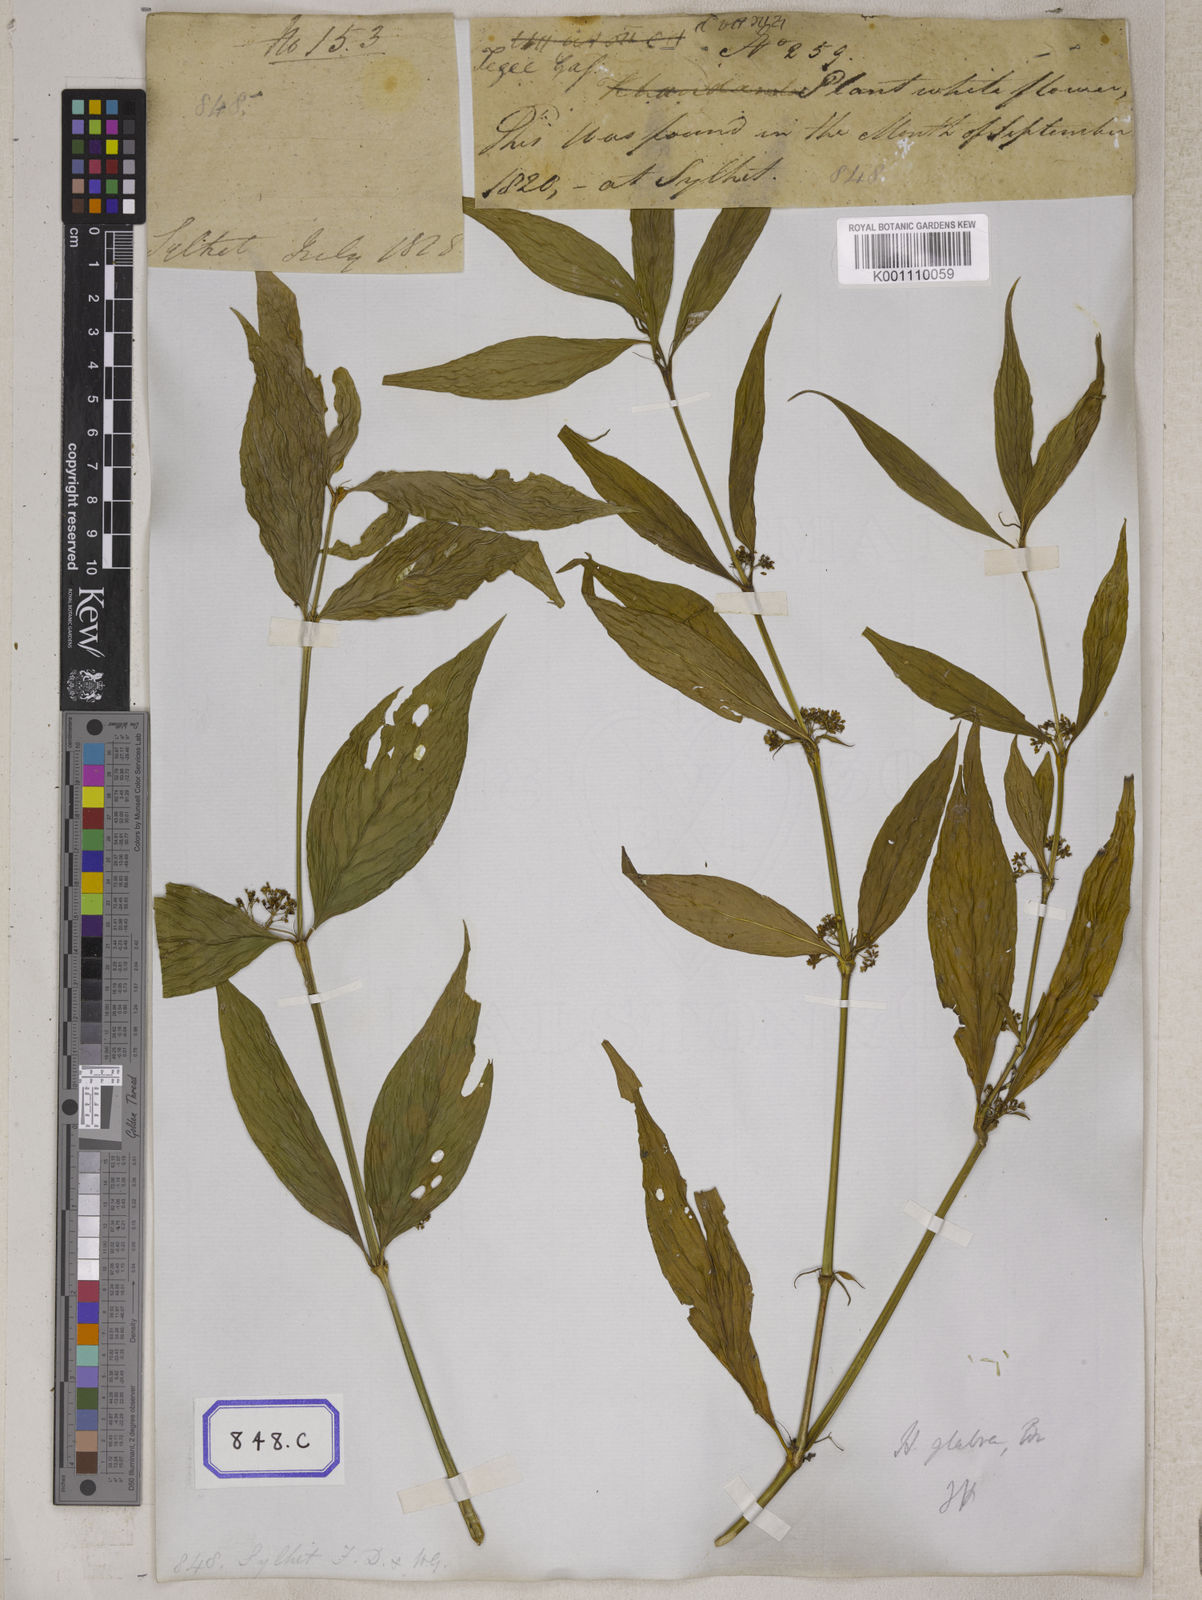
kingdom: Plantae
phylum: Tracheophyta
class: Magnoliopsida
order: Gentianales
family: Rubiaceae
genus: Hedyotis
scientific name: Hedyotis
